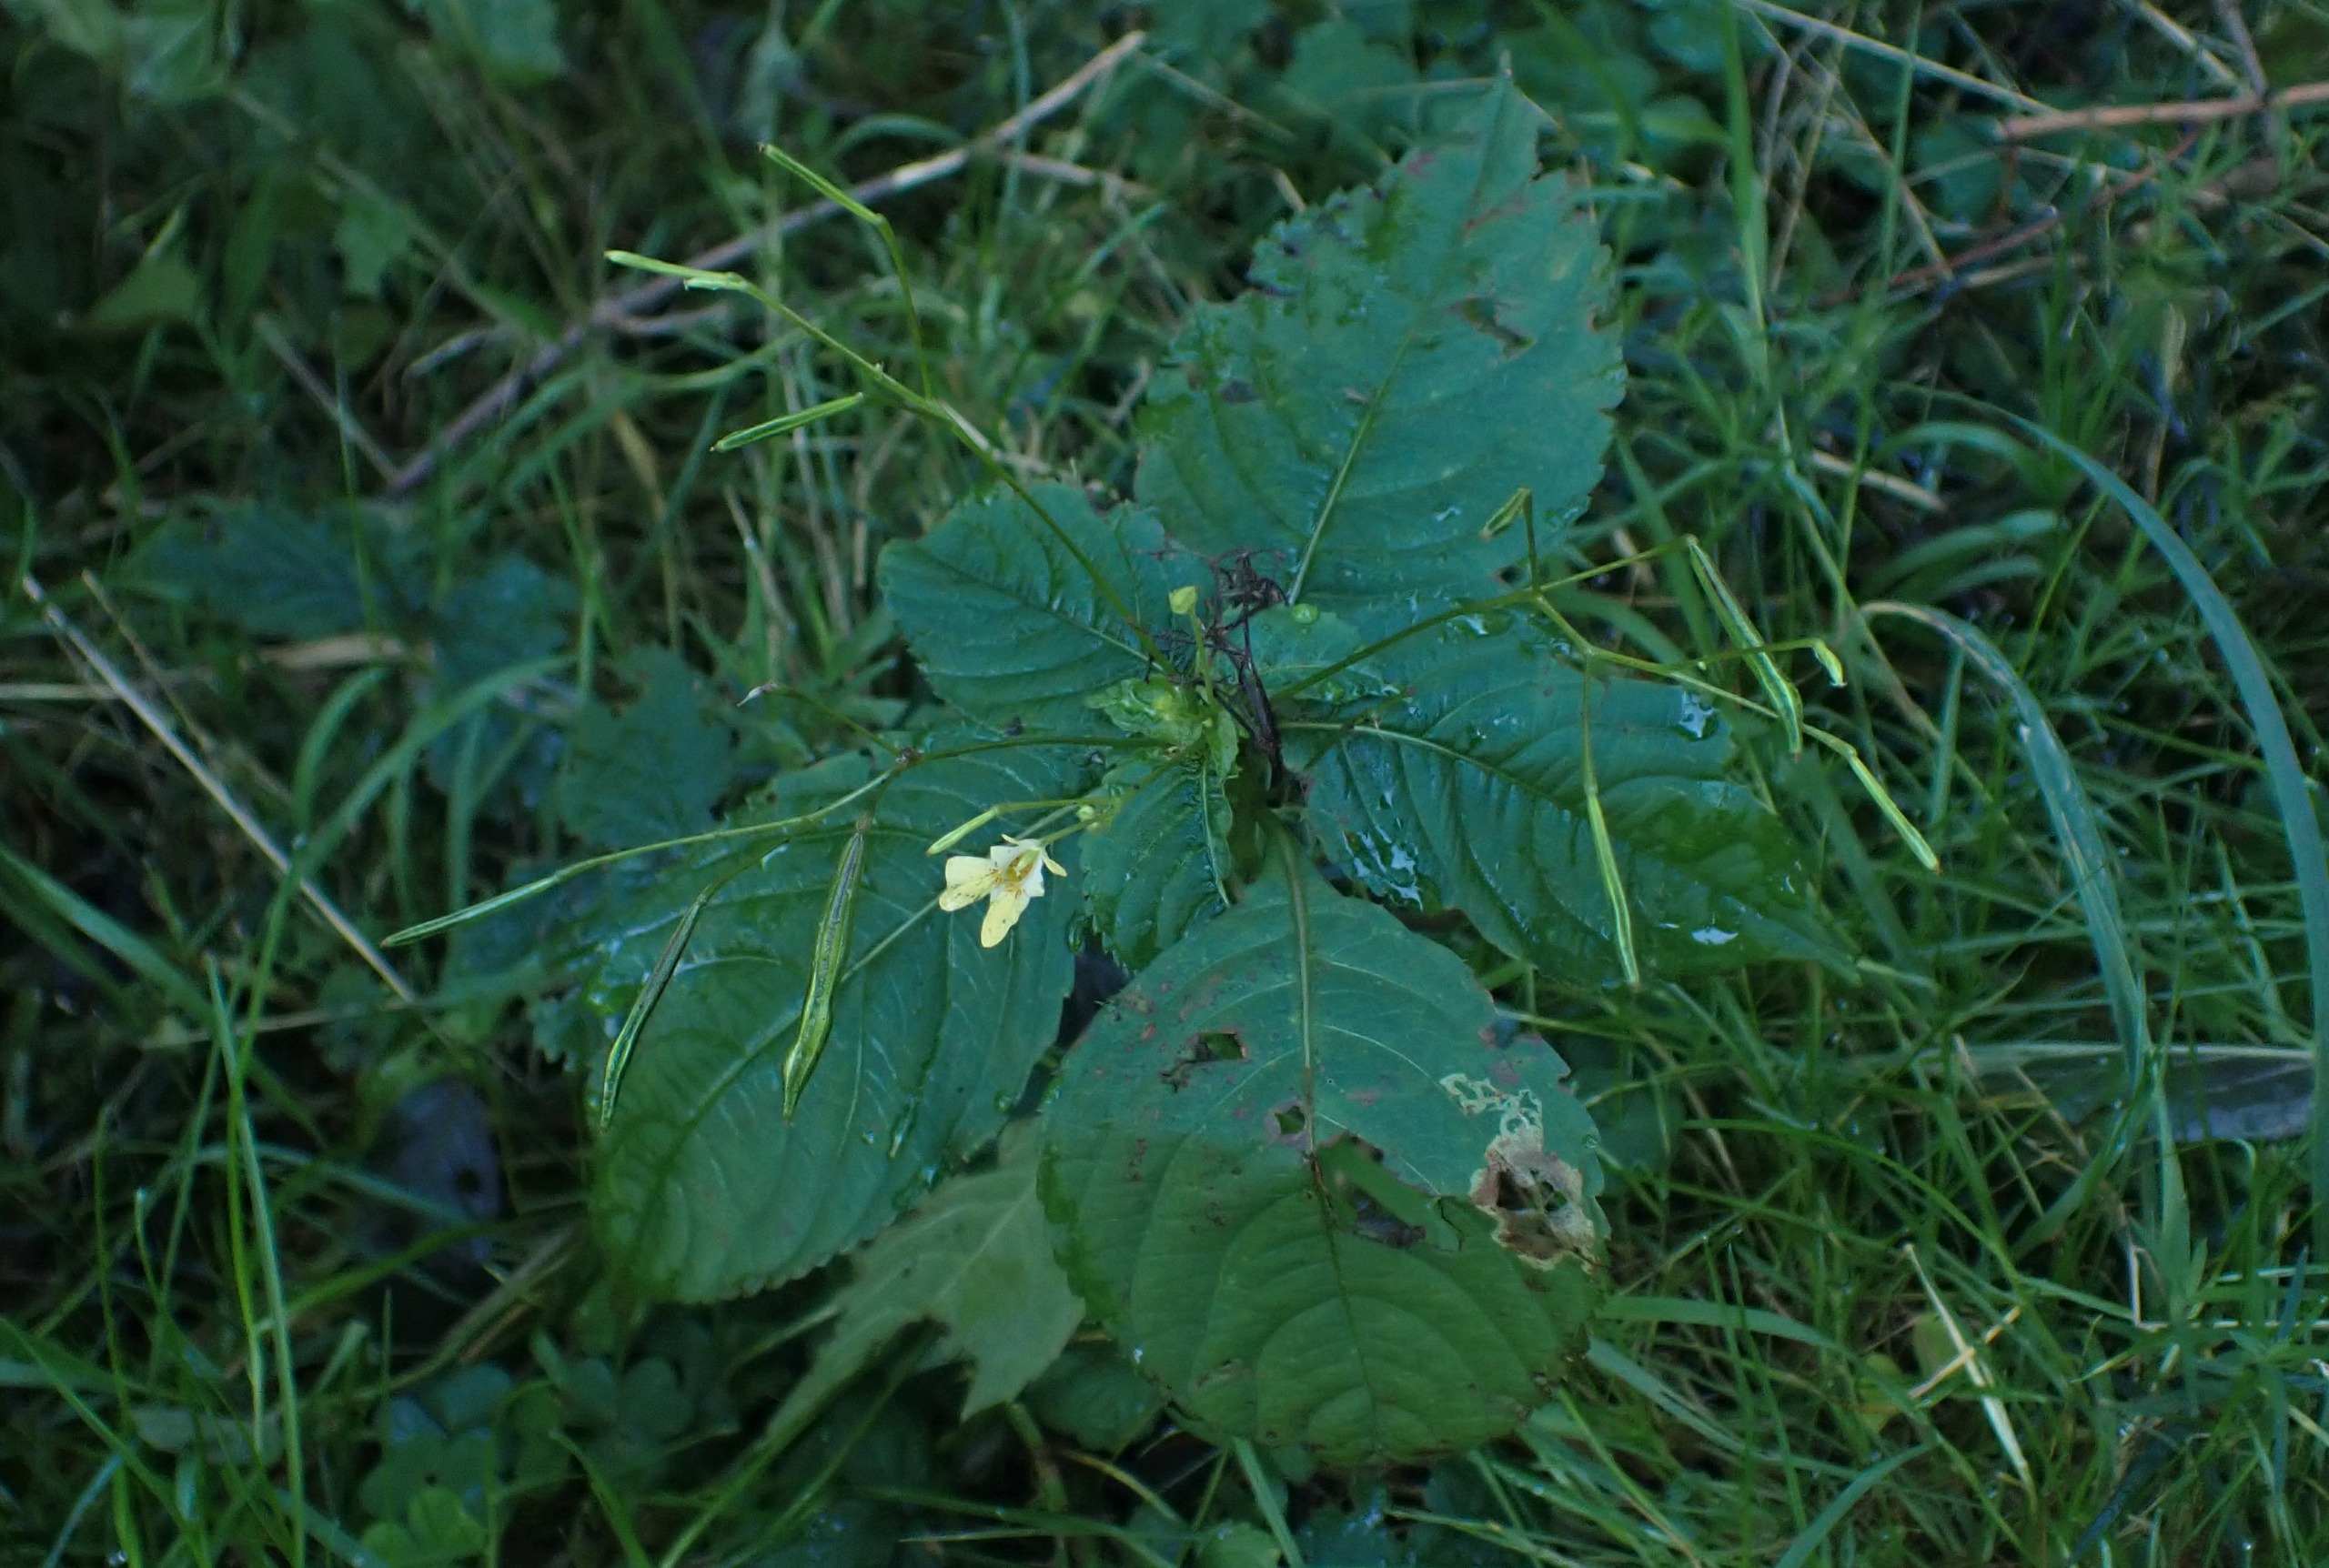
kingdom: Plantae
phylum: Tracheophyta
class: Magnoliopsida
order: Ericales
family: Balsaminaceae
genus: Impatiens
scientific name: Impatiens parviflora
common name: Småblomstret balsamin
